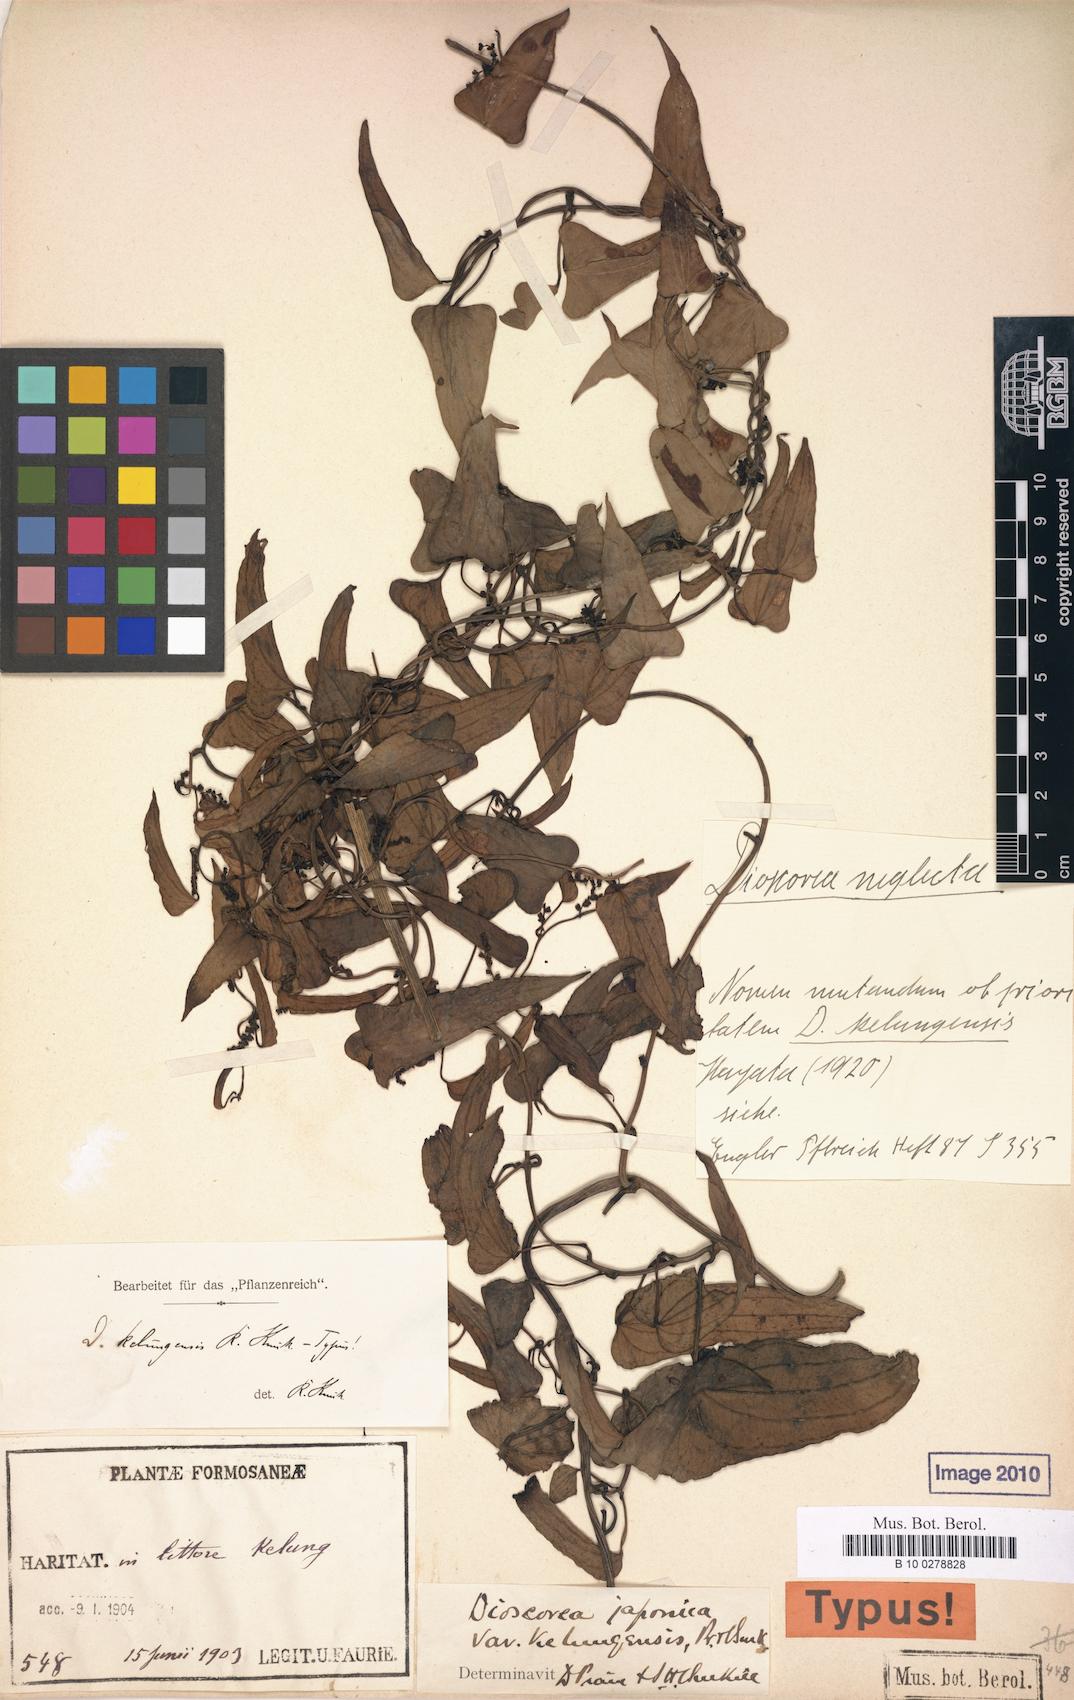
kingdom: Plantae
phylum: Tracheophyta
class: Liliopsida
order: Dioscoreales
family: Dioscoreaceae
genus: Dioscorea
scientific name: Dioscorea pseudojaponica
